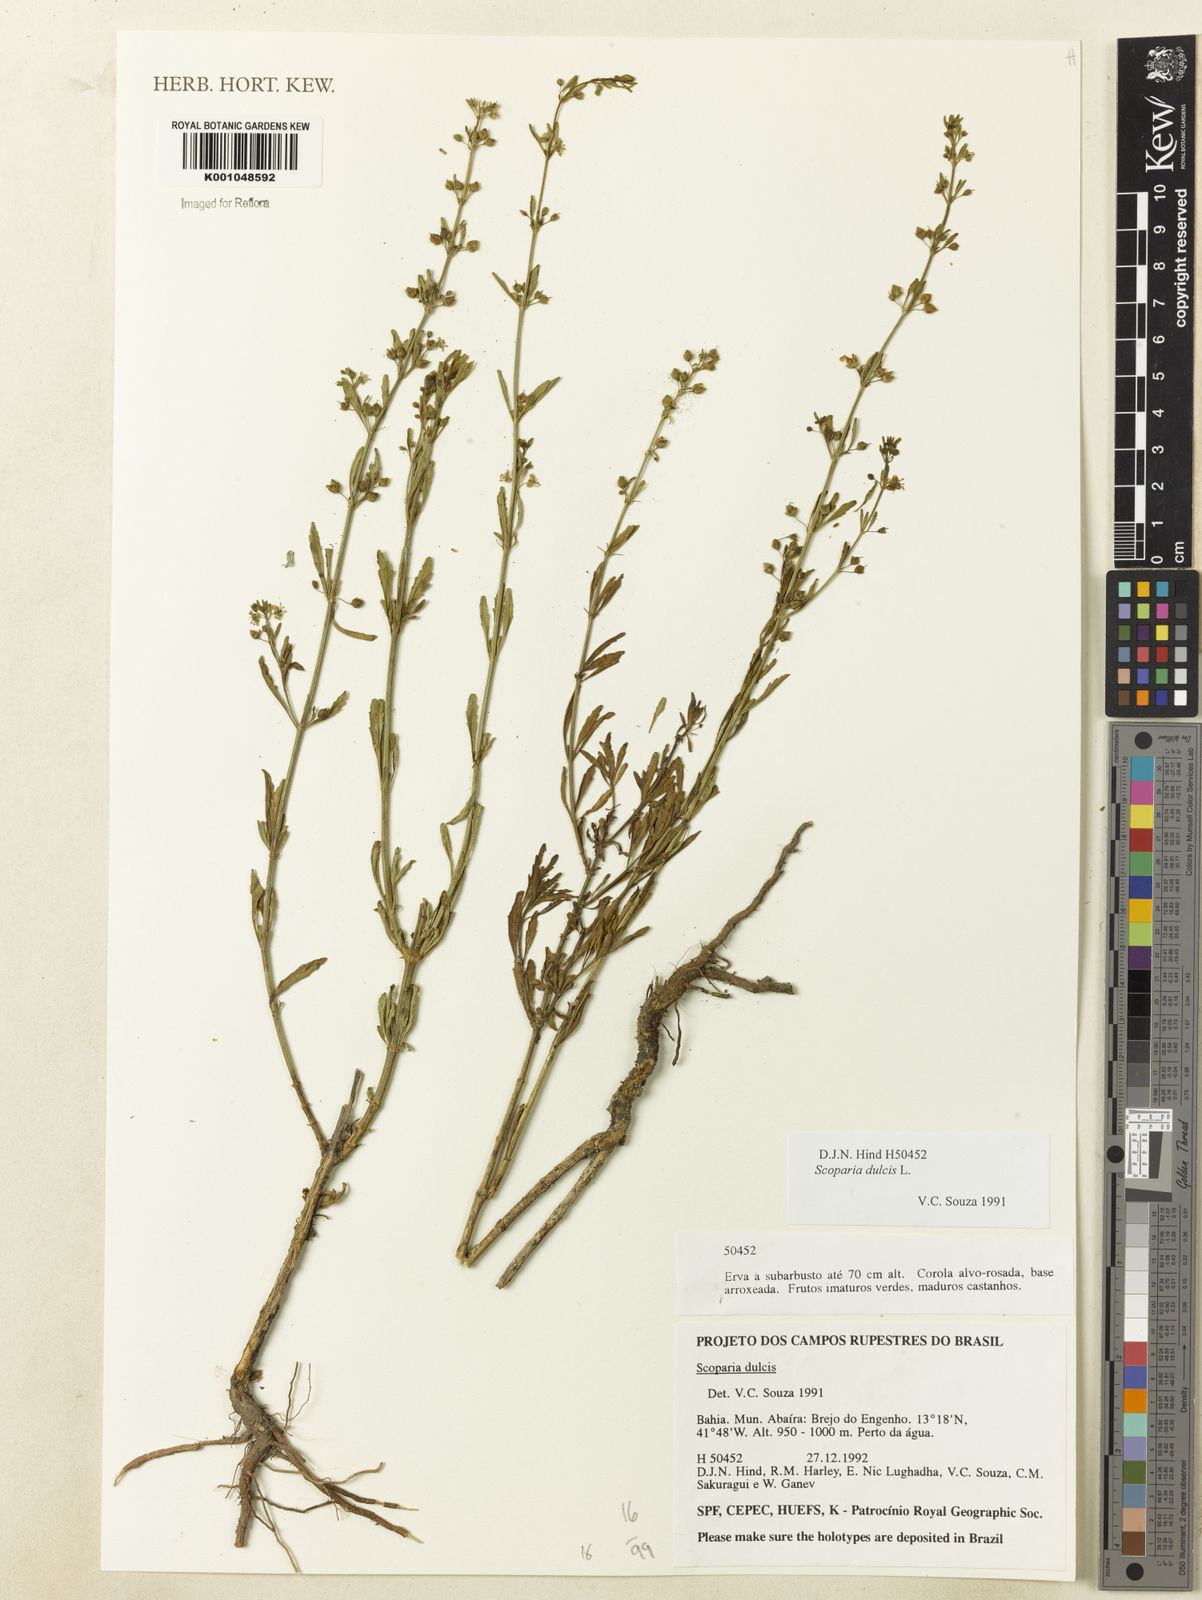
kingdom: Plantae
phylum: Tracheophyta
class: Magnoliopsida
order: Lamiales
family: Plantaginaceae
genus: Scoparia
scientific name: Scoparia dulcis
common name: Scoparia-weed
